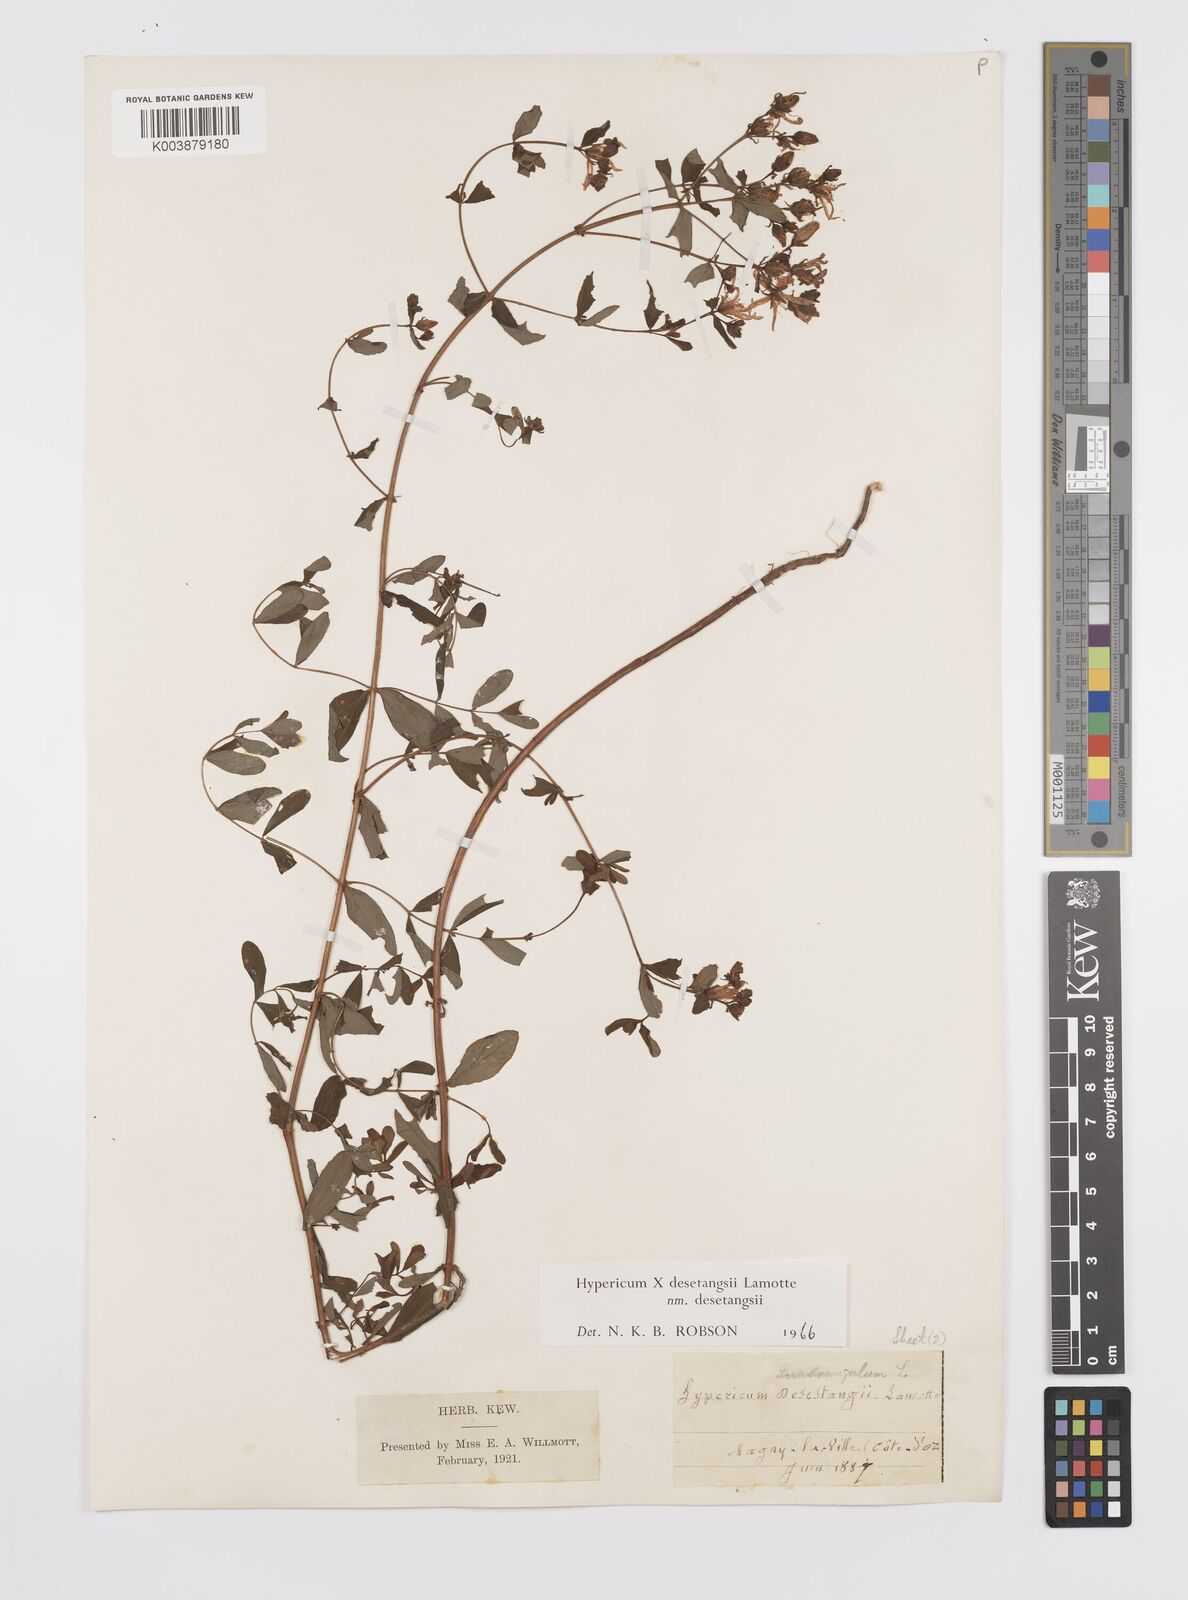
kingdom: Plantae
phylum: Tracheophyta
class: Magnoliopsida
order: Malpighiales
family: Hypericaceae
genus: Hypericum
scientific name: Hypericum desetangsii
